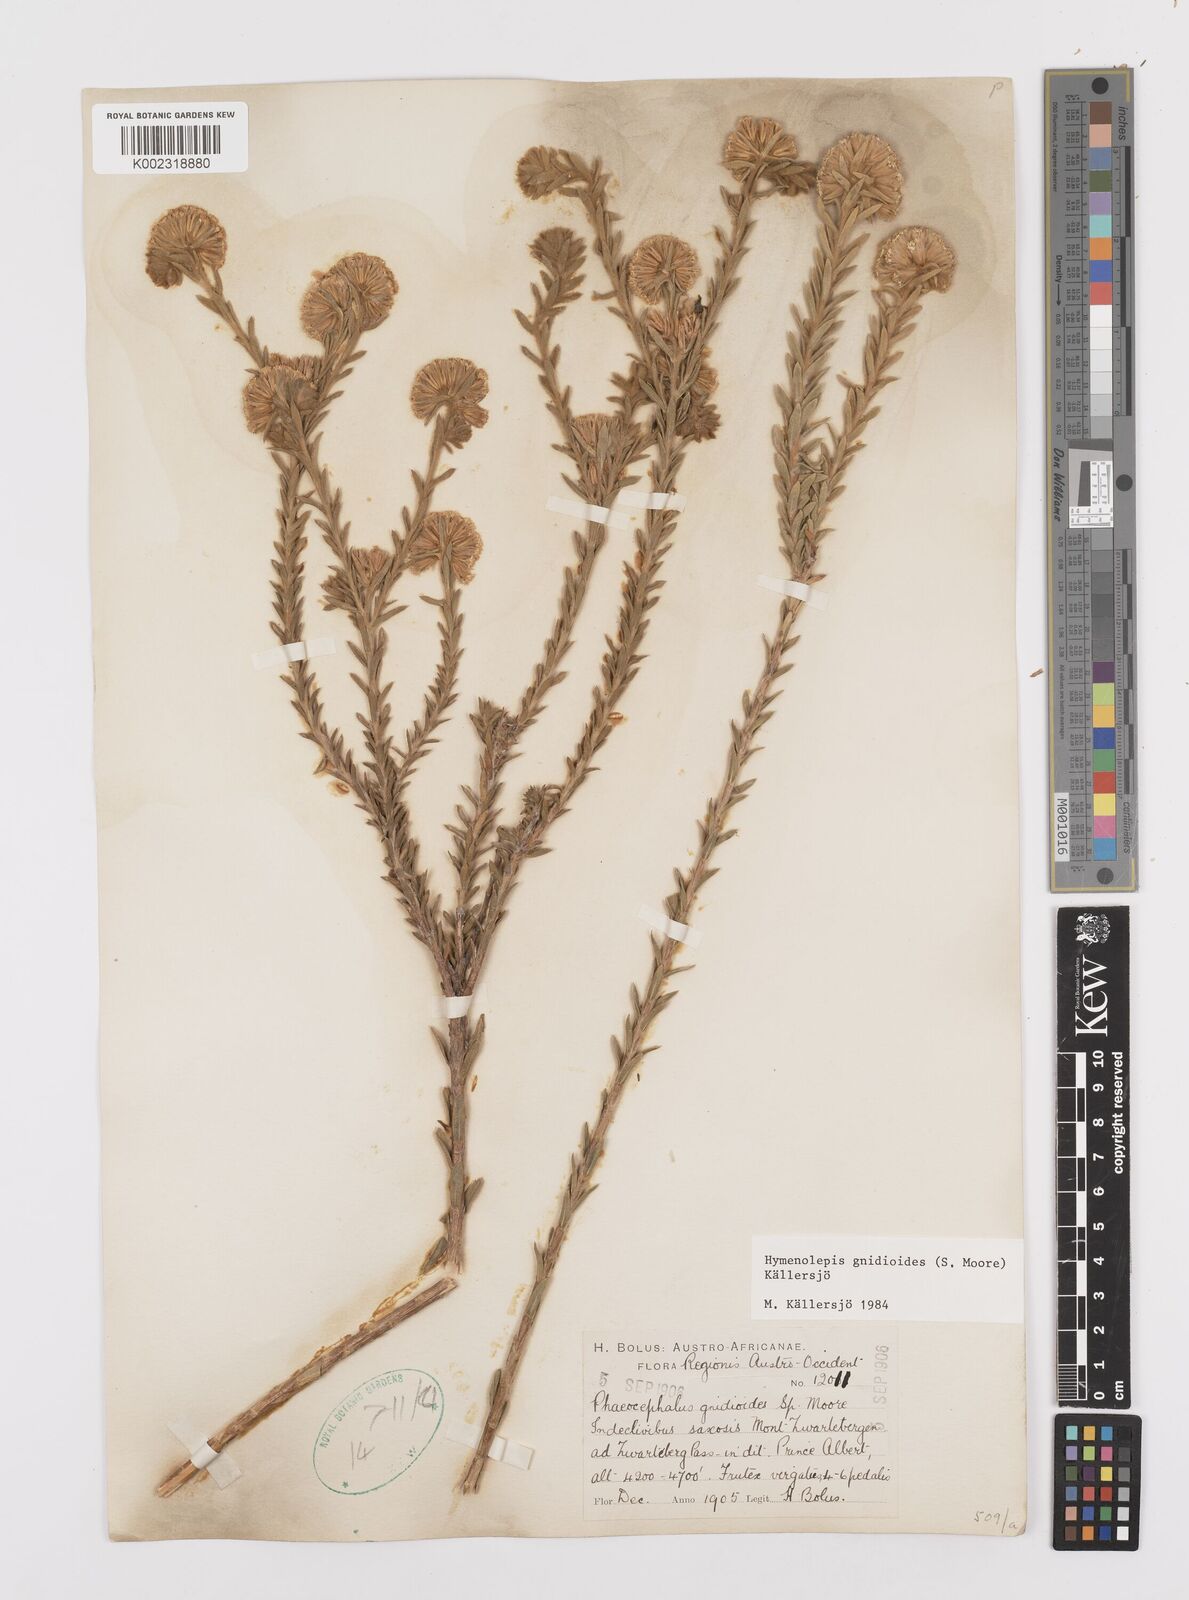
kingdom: Plantae
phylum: Tracheophyta
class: Magnoliopsida
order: Asterales
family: Asteraceae
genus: Hymenolepis
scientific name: Hymenolepis gnidioides
